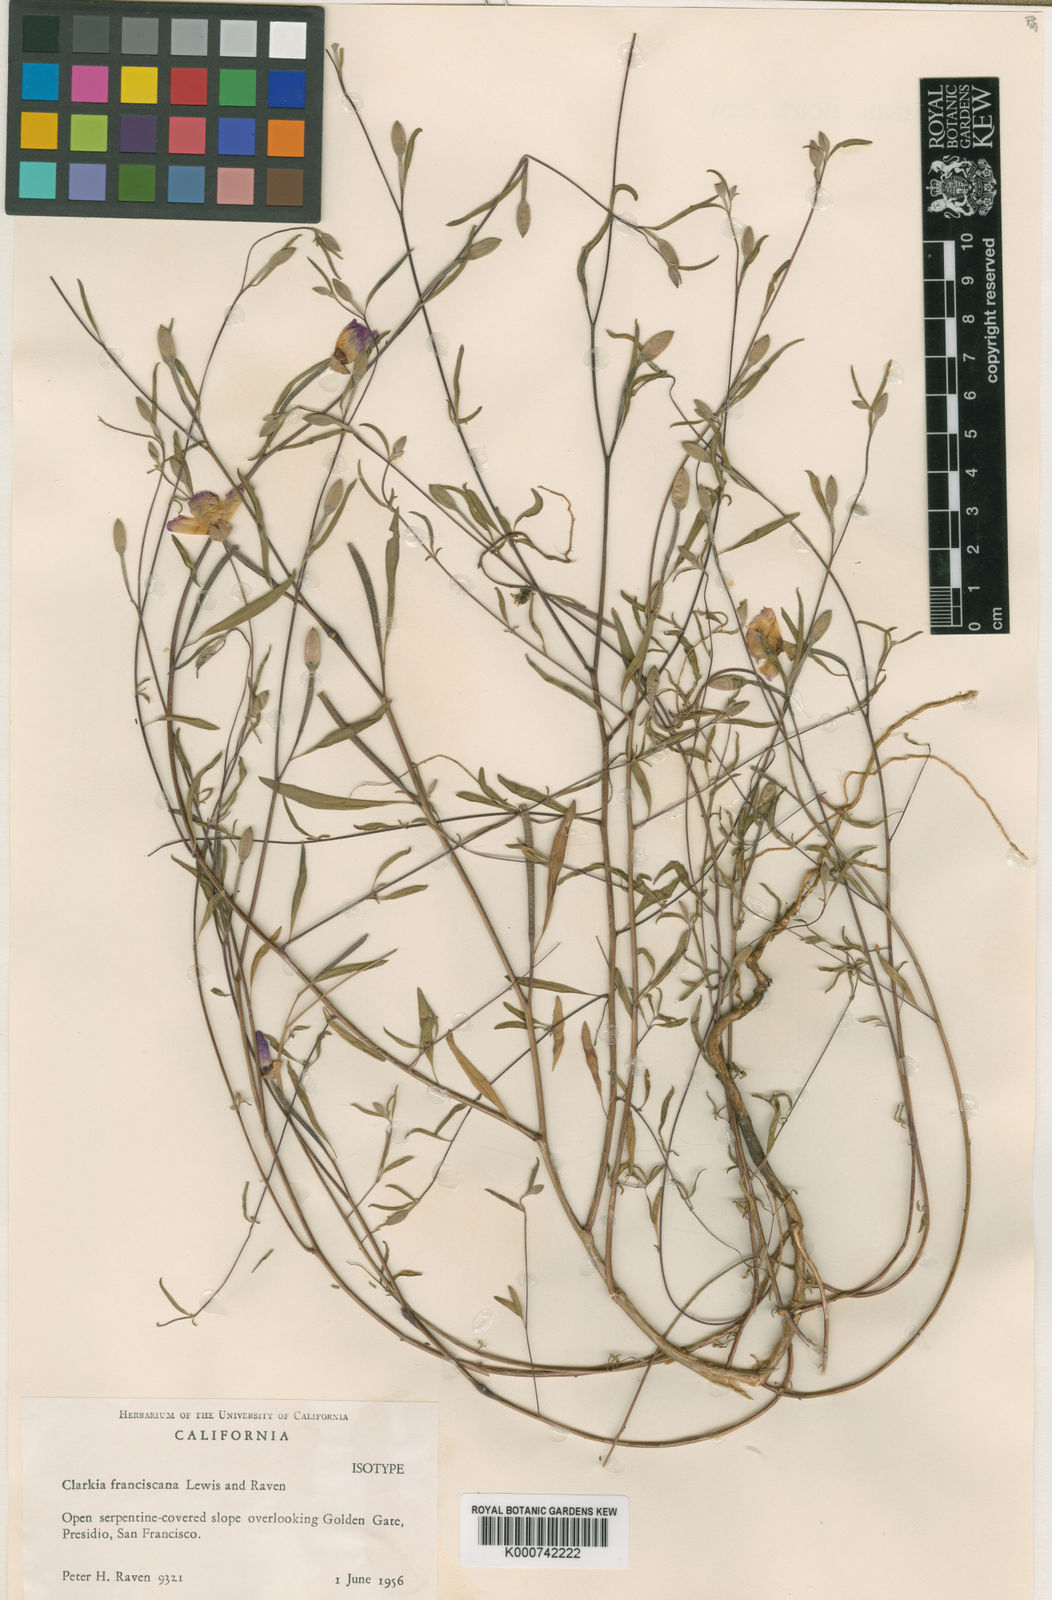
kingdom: Plantae
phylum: Tracheophyta
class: Magnoliopsida
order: Myrtales
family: Onagraceae
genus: Clarkia
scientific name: Clarkia
